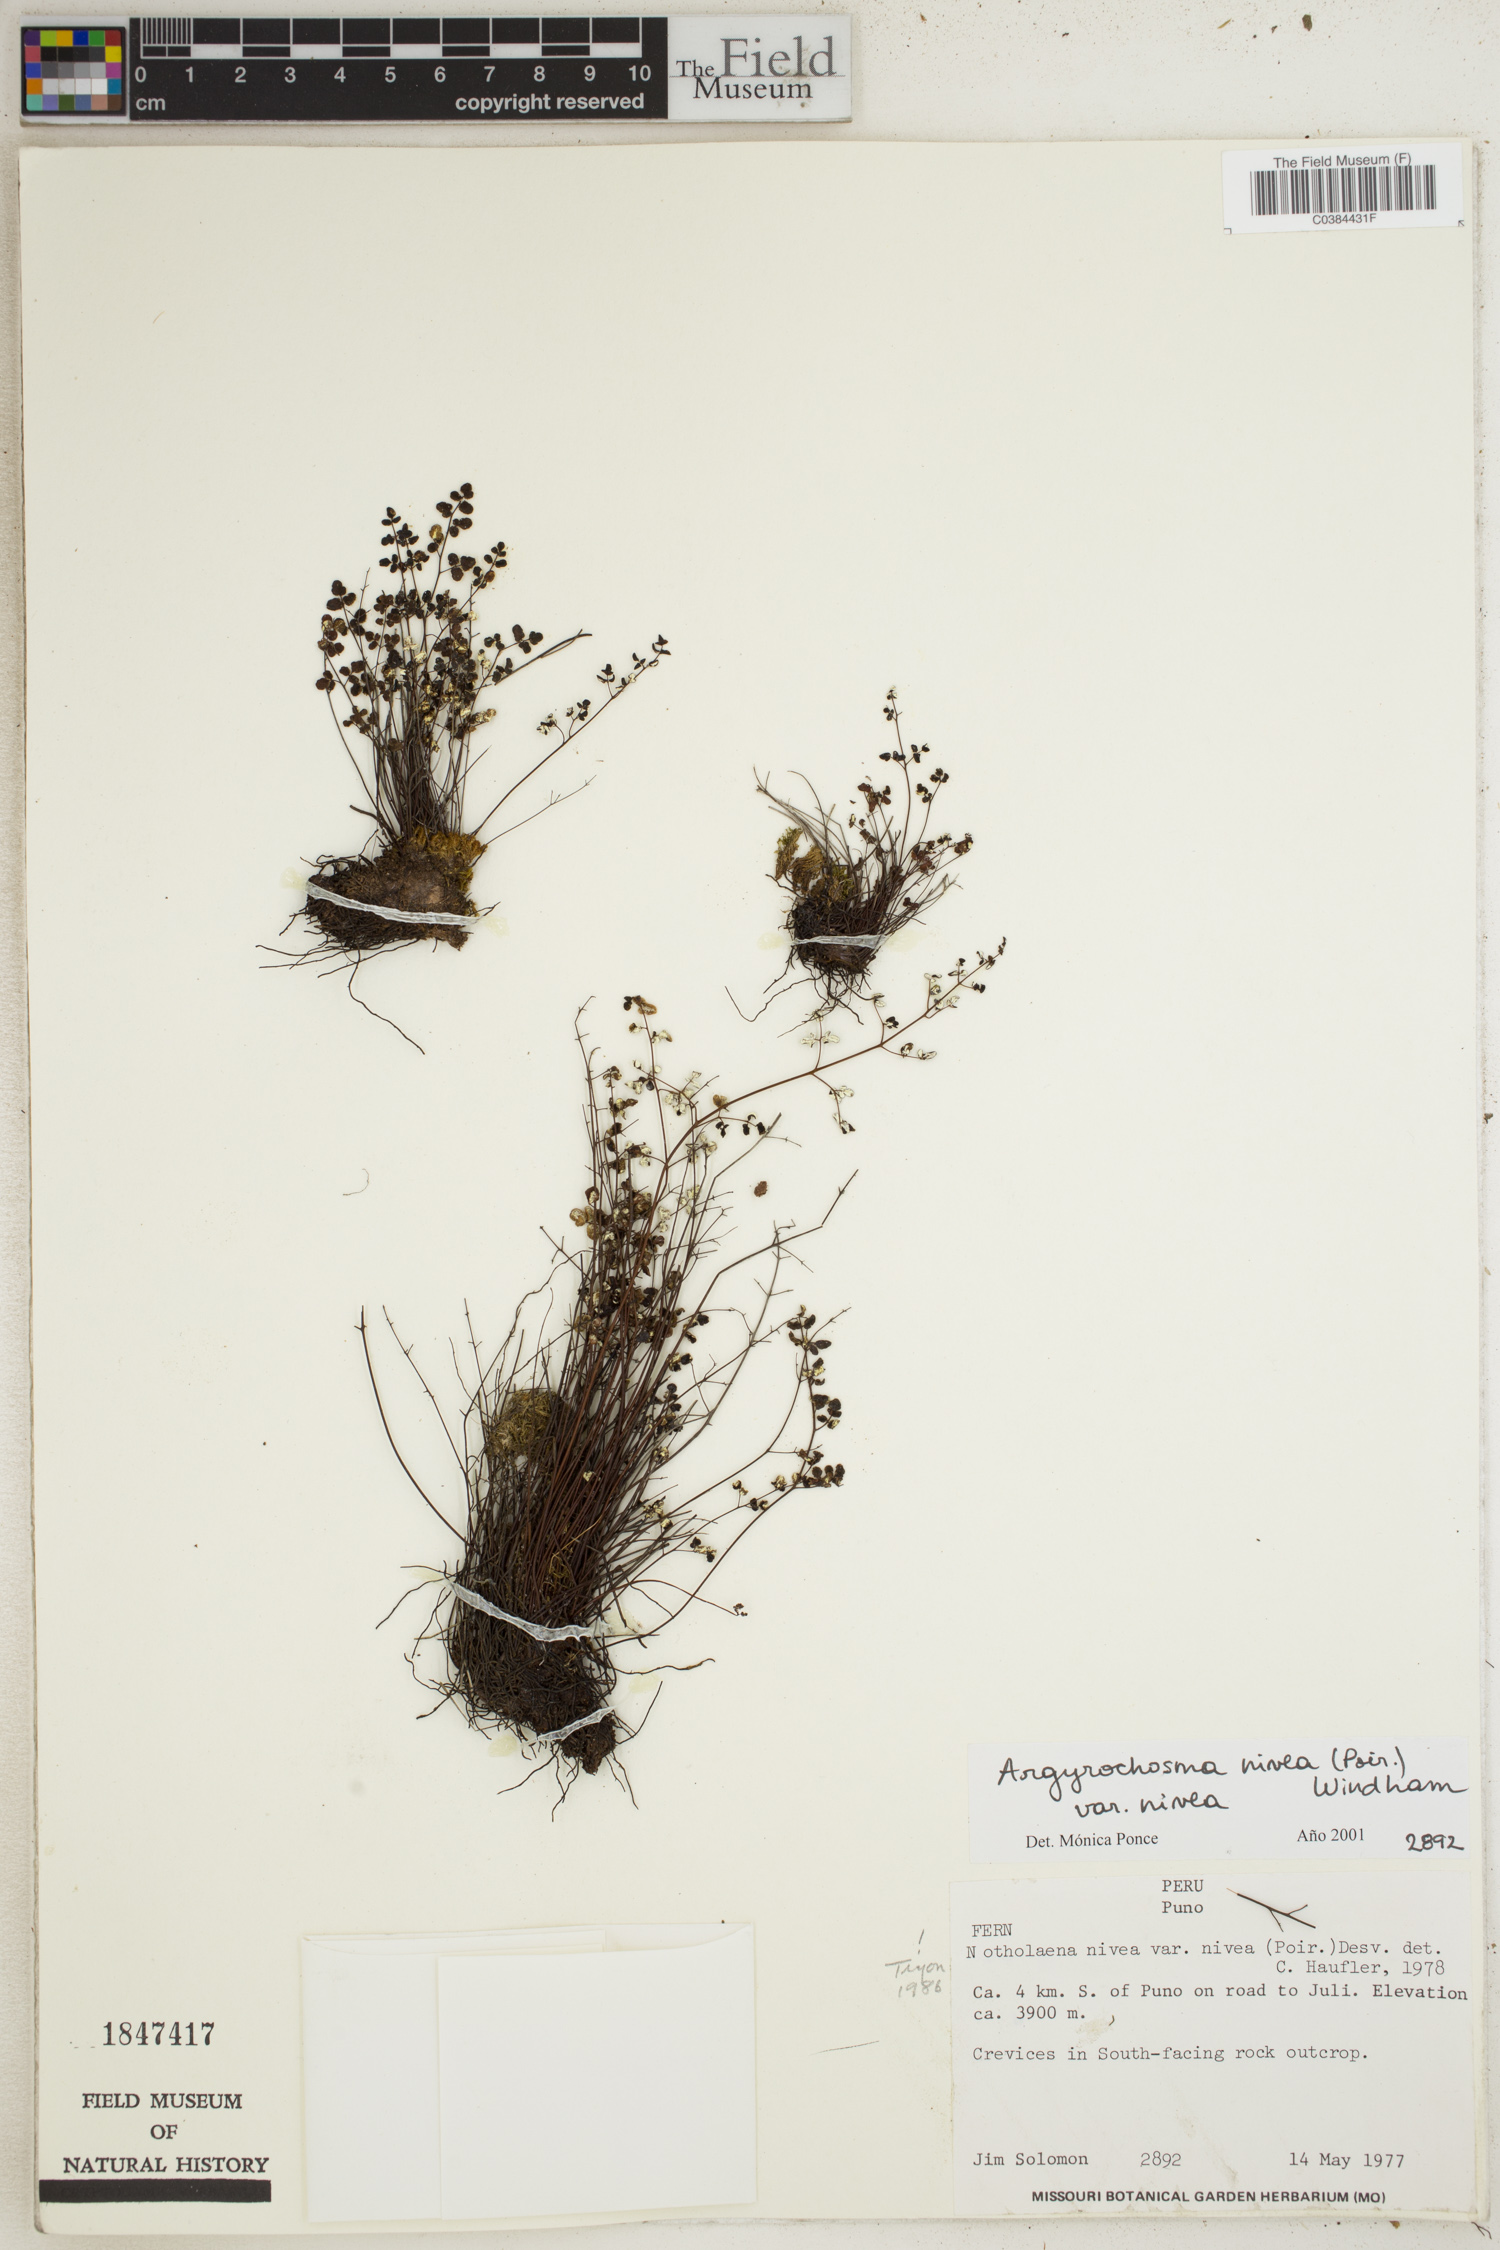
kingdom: Plantae
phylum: Tracheophyta
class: Polypodiopsida
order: Polypodiales
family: Pteridaceae
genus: Argyrochosma
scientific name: Argyrochosma nivea
